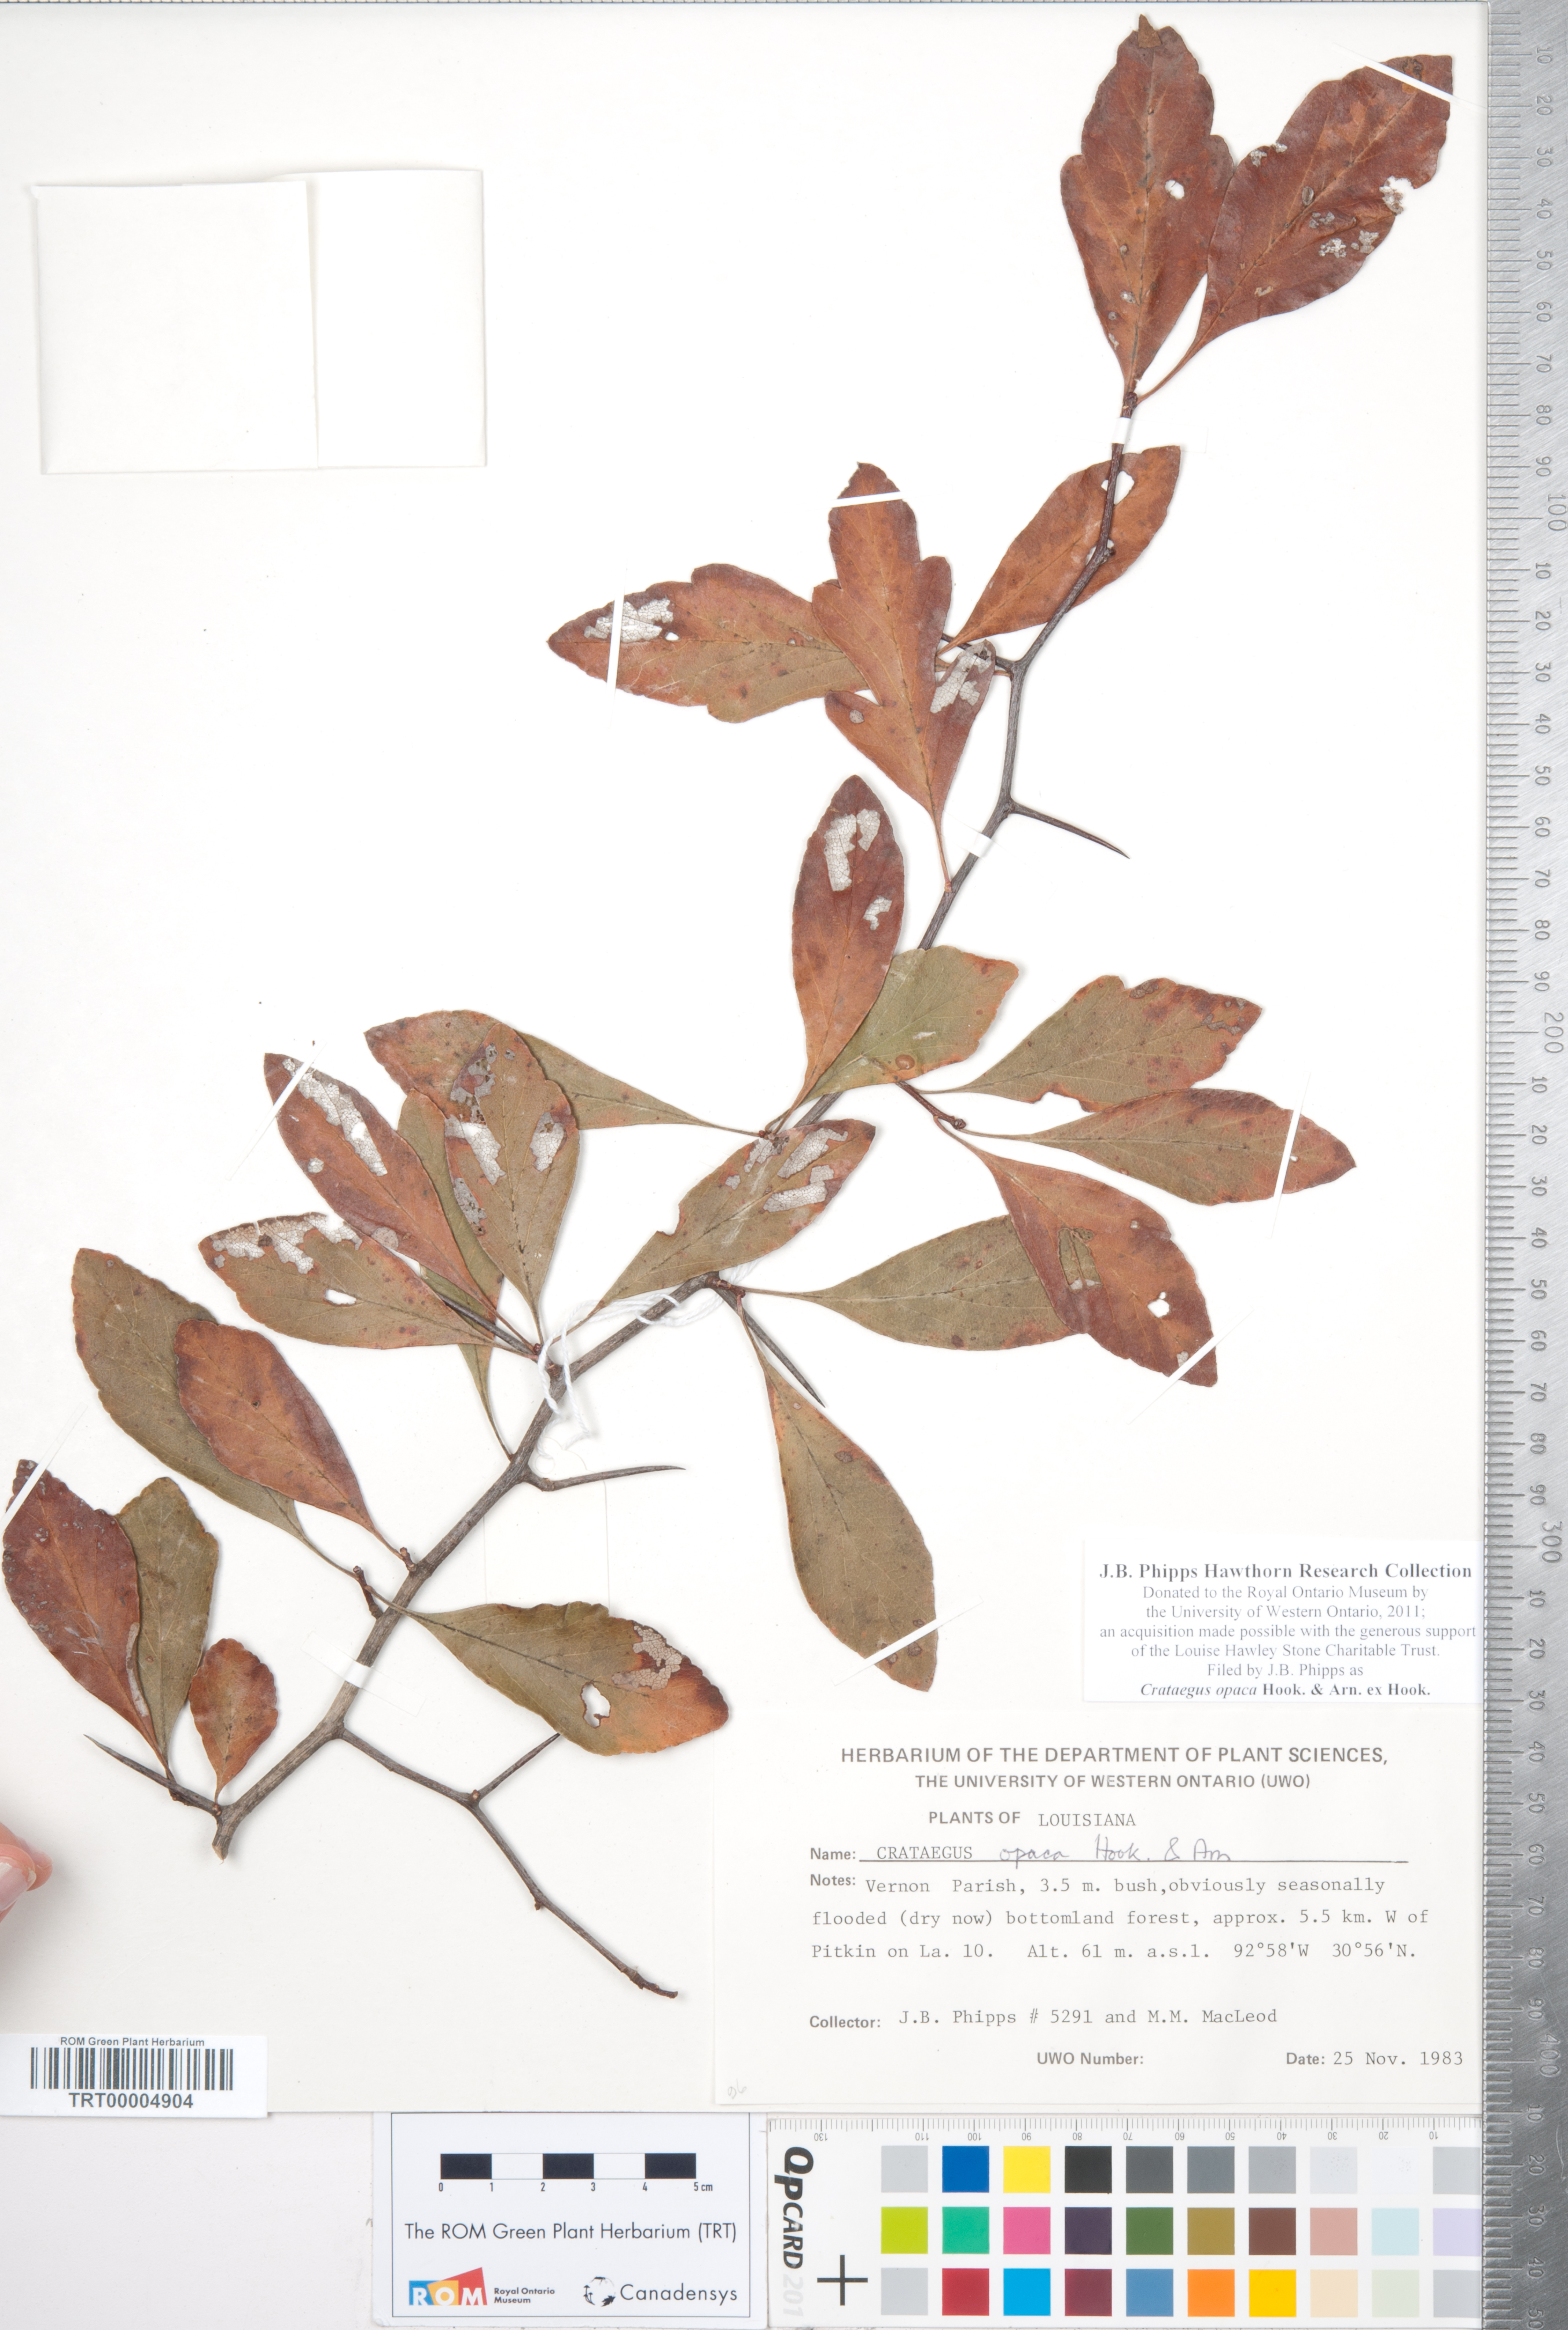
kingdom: Plantae
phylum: Tracheophyta
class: Magnoliopsida
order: Rosales
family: Rosaceae
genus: Crataegus
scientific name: Crataegus opaca
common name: Apple haw
